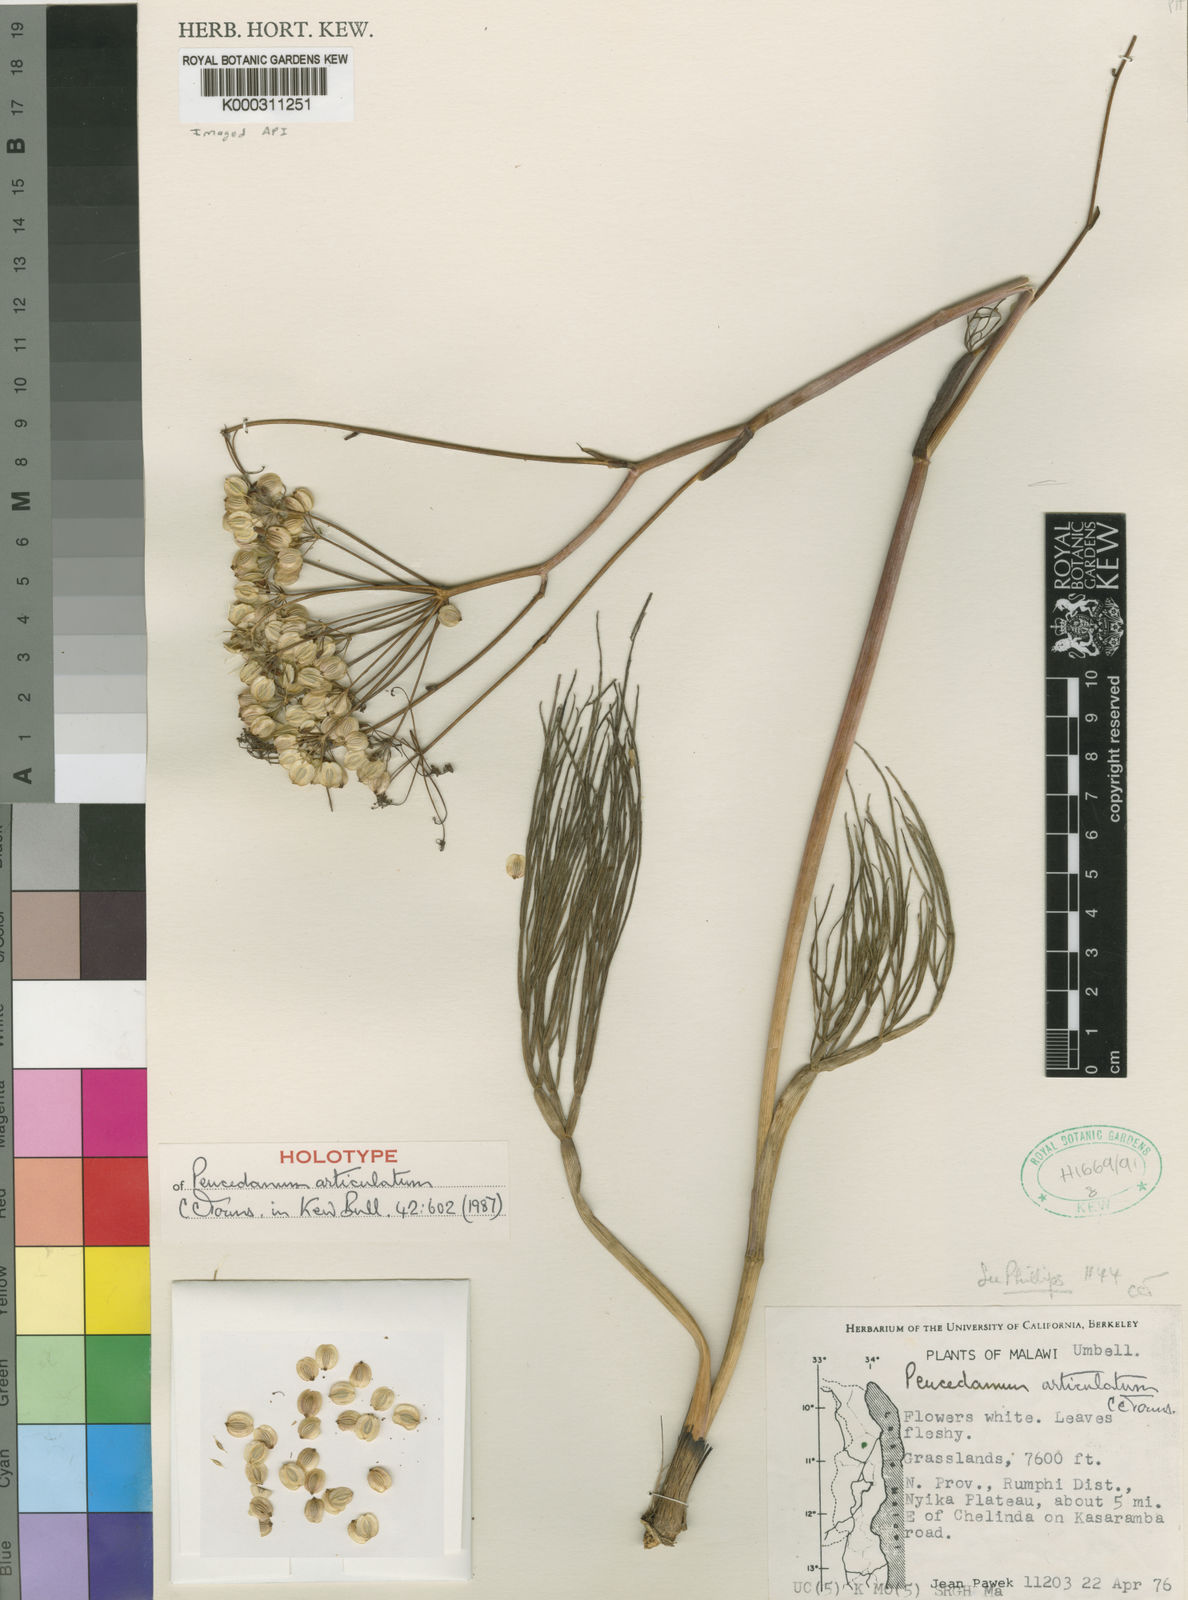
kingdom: Plantae
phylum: Tracheophyta
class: Magnoliopsida
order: Apiales
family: Apiaceae
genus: Afrosciadium
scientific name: Afrosciadium articulatum
